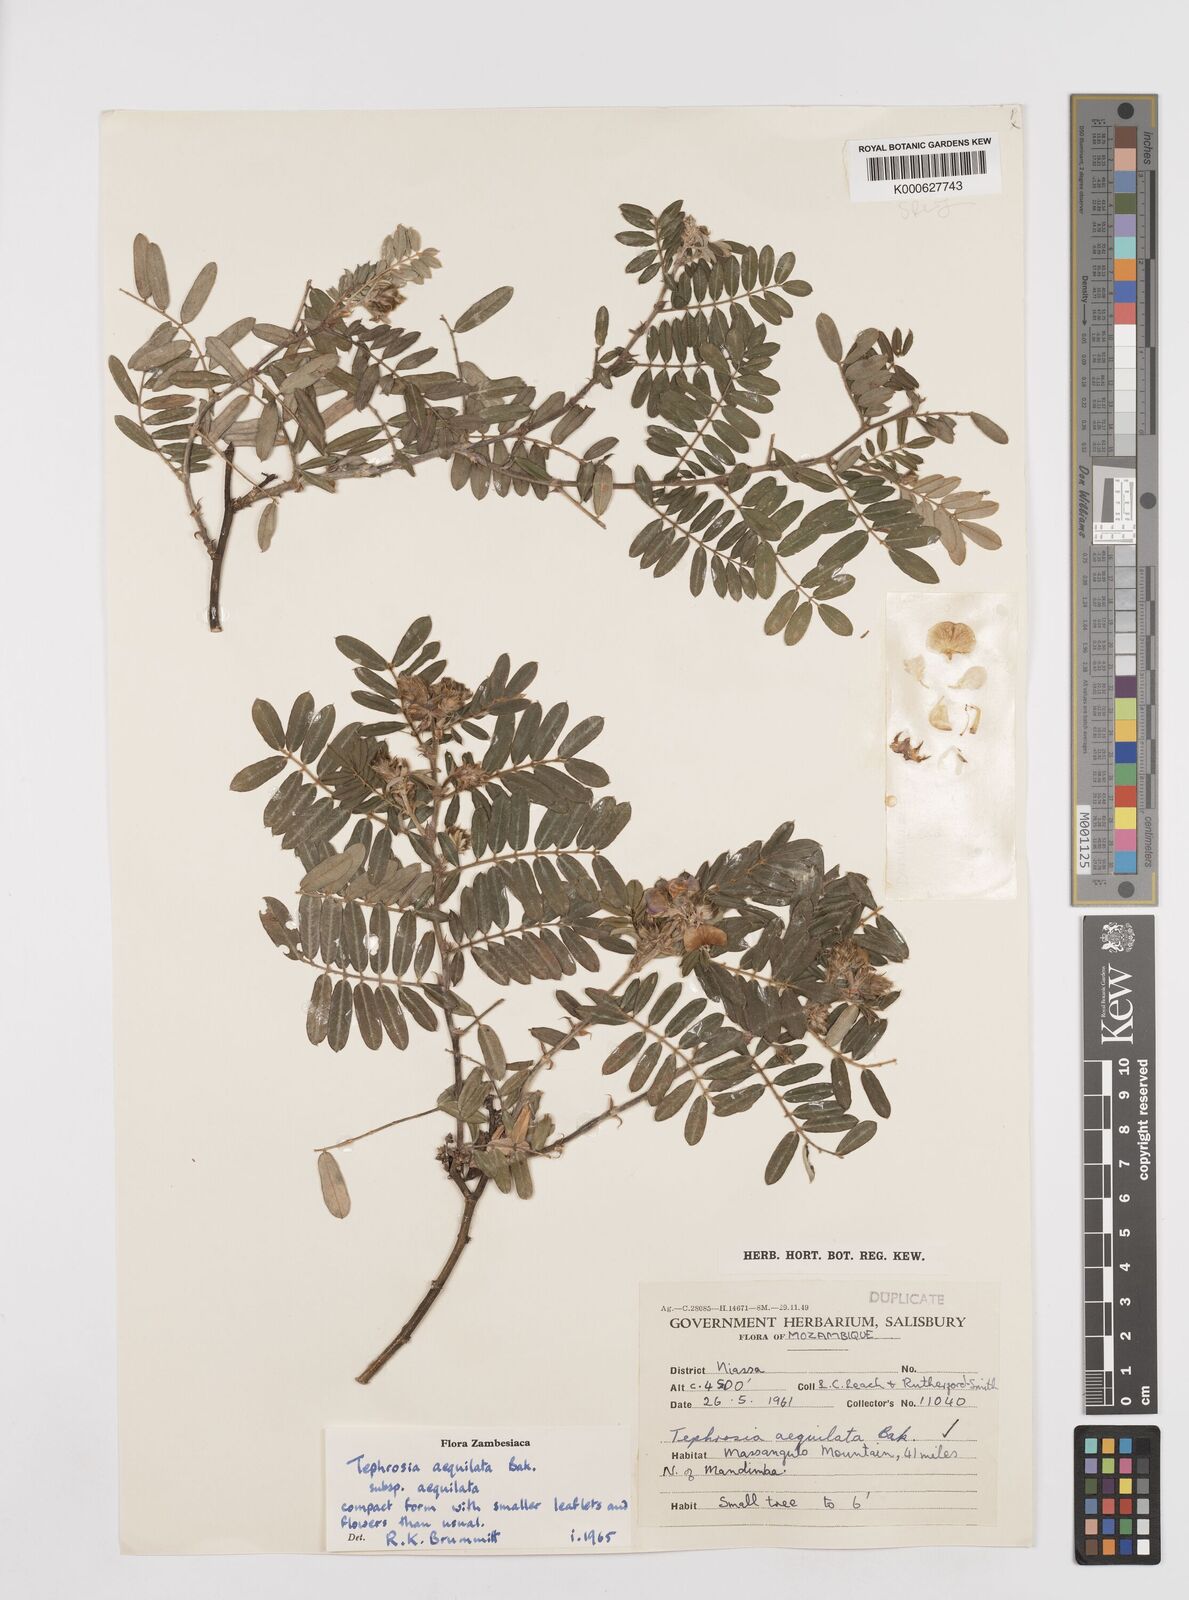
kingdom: Plantae
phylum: Tracheophyta
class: Magnoliopsida
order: Fabales
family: Fabaceae
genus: Tephrosia
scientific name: Tephrosia
